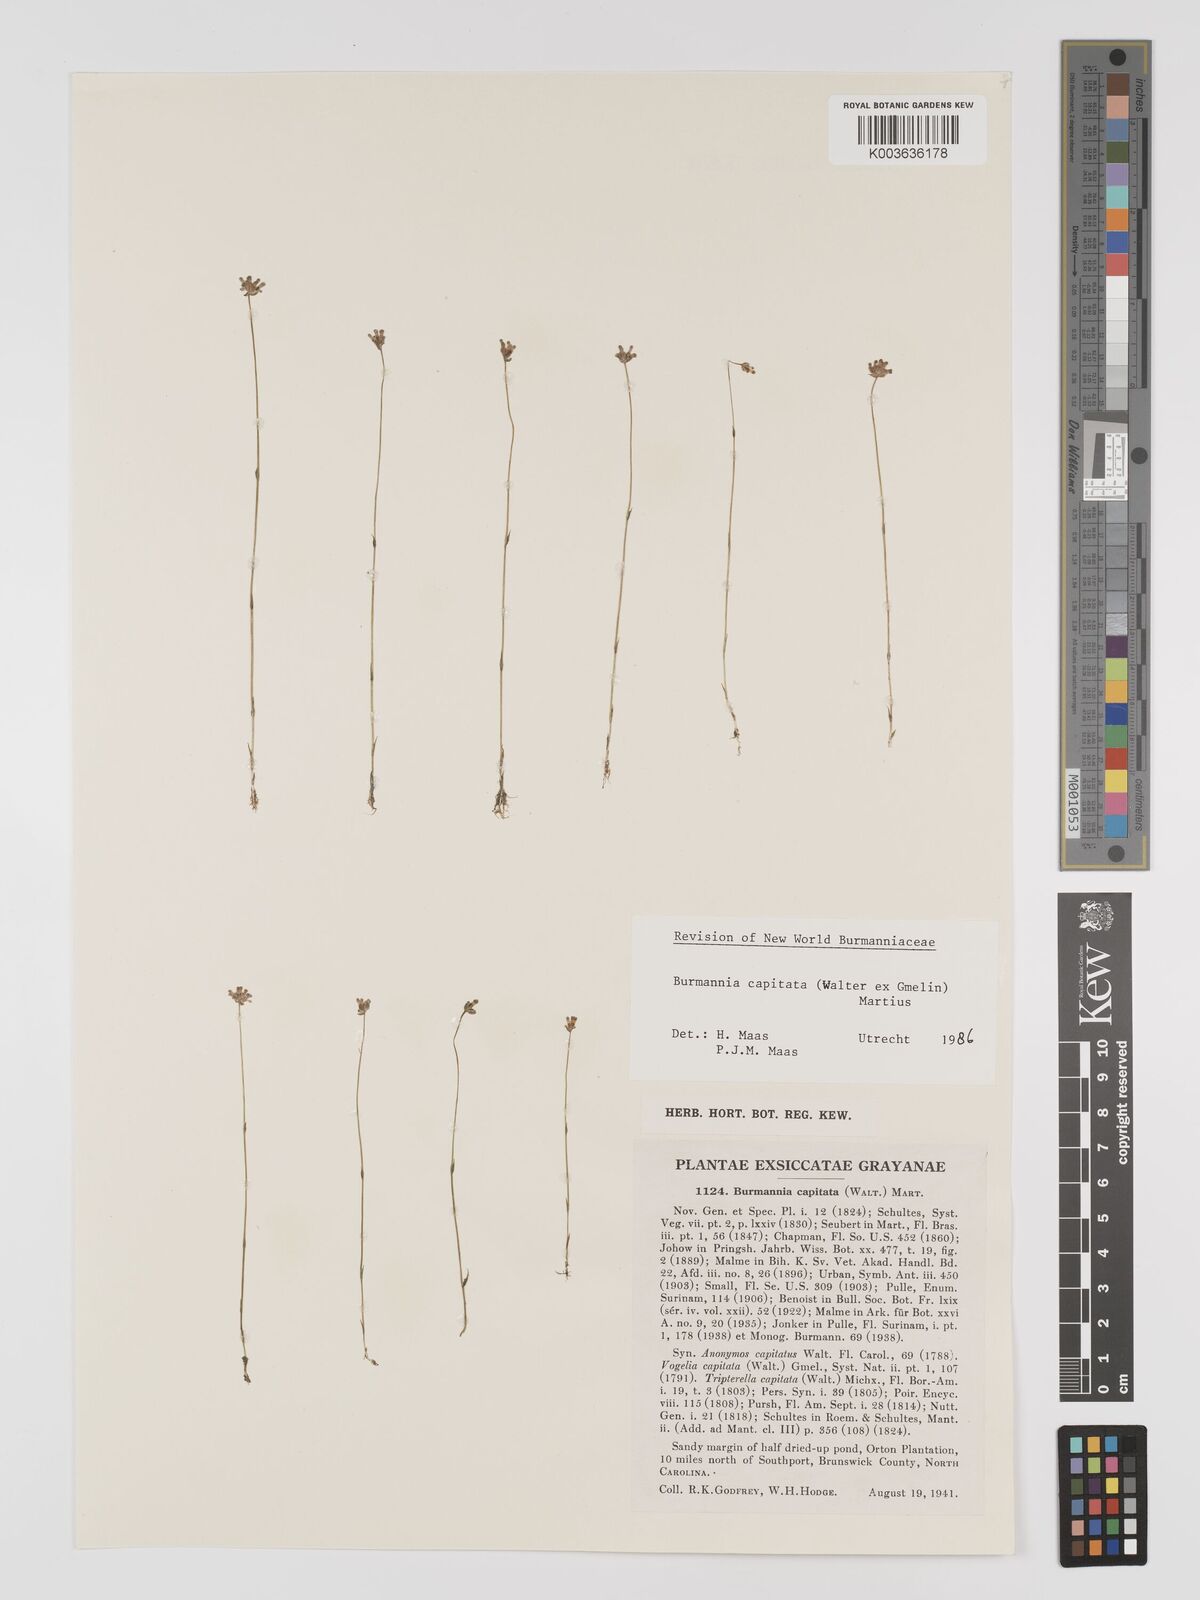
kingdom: Plantae
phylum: Tracheophyta
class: Liliopsida
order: Dioscoreales
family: Burmanniaceae
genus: Burmannia
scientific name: Burmannia capitata
